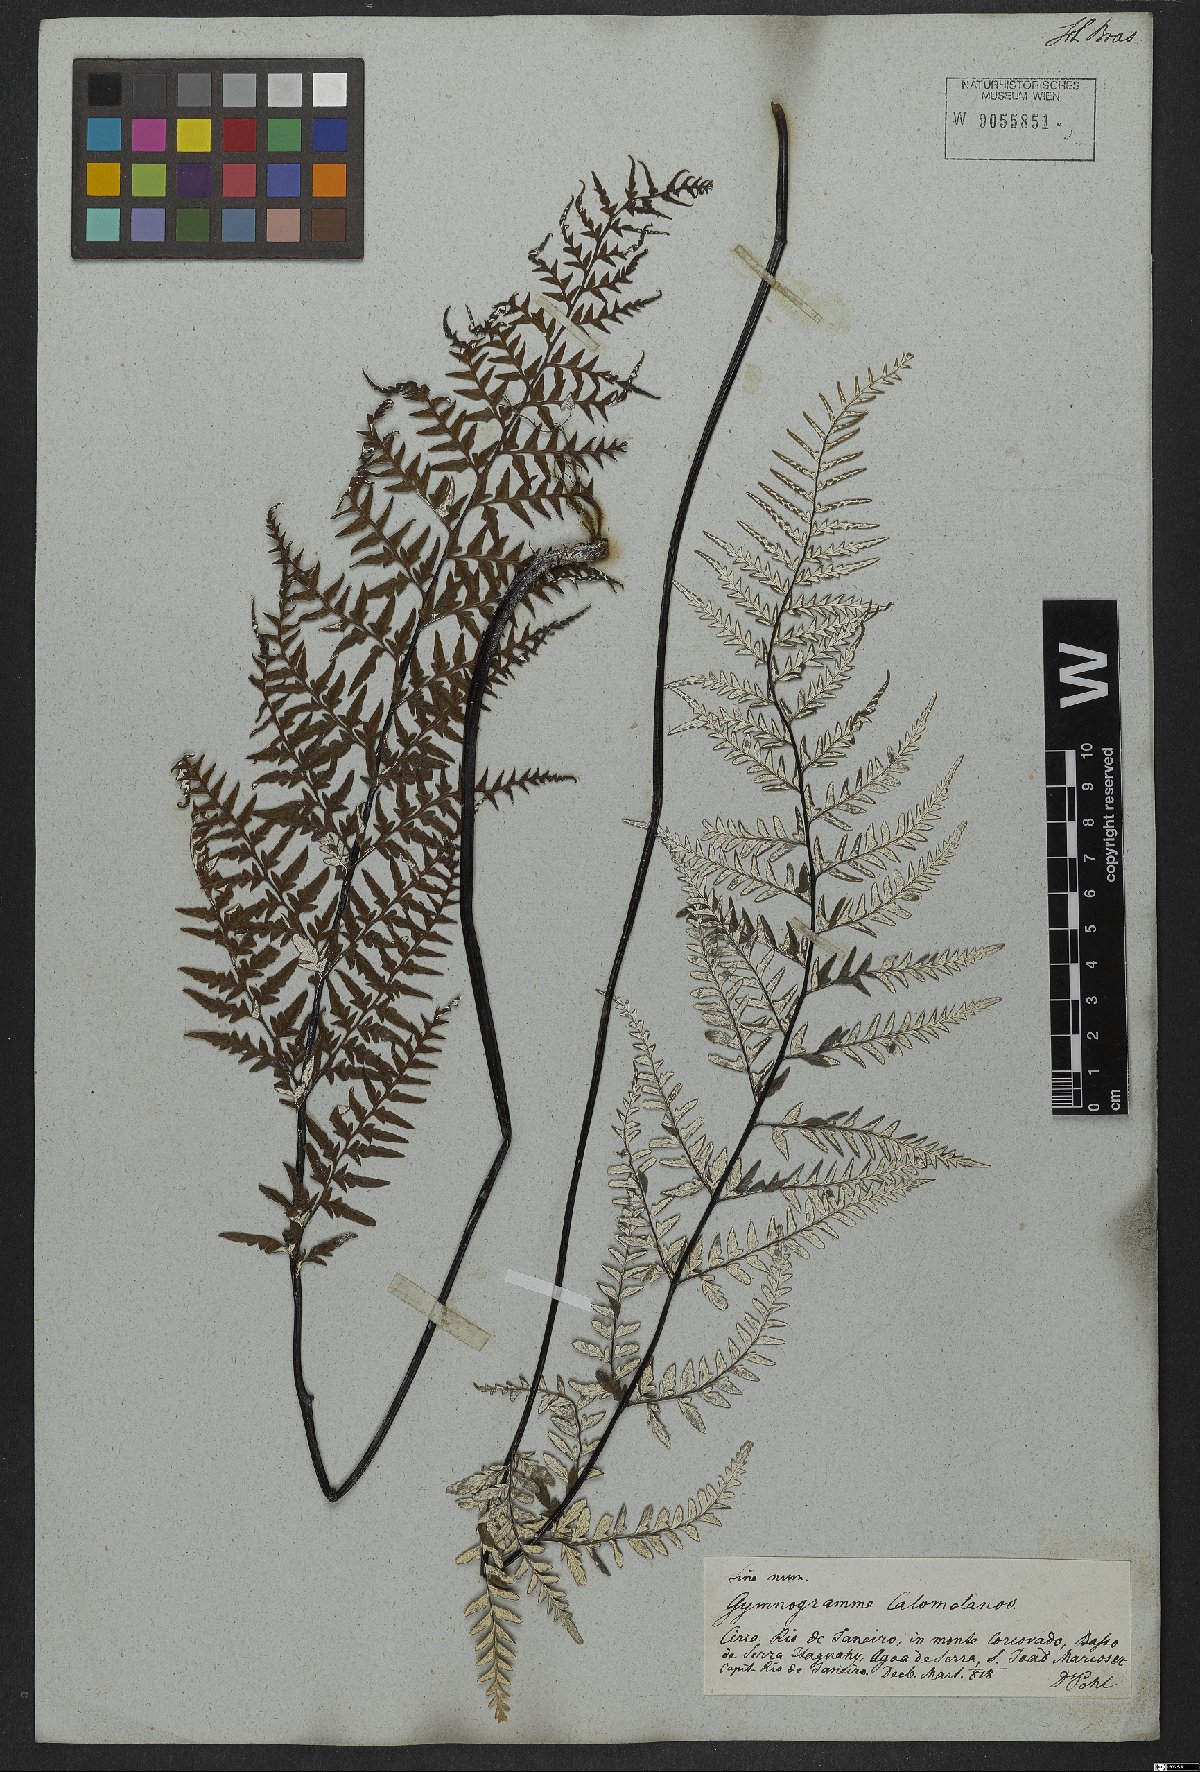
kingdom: Plantae
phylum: Tracheophyta
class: Polypodiopsida
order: Polypodiales
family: Pteridaceae
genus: Pityrogramma
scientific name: Pityrogramma calomelanos
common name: Dixie silverback fern
